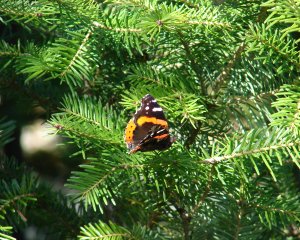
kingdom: Animalia
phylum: Arthropoda
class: Insecta
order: Lepidoptera
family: Nymphalidae
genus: Vanessa
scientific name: Vanessa atalanta
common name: Red Admiral
